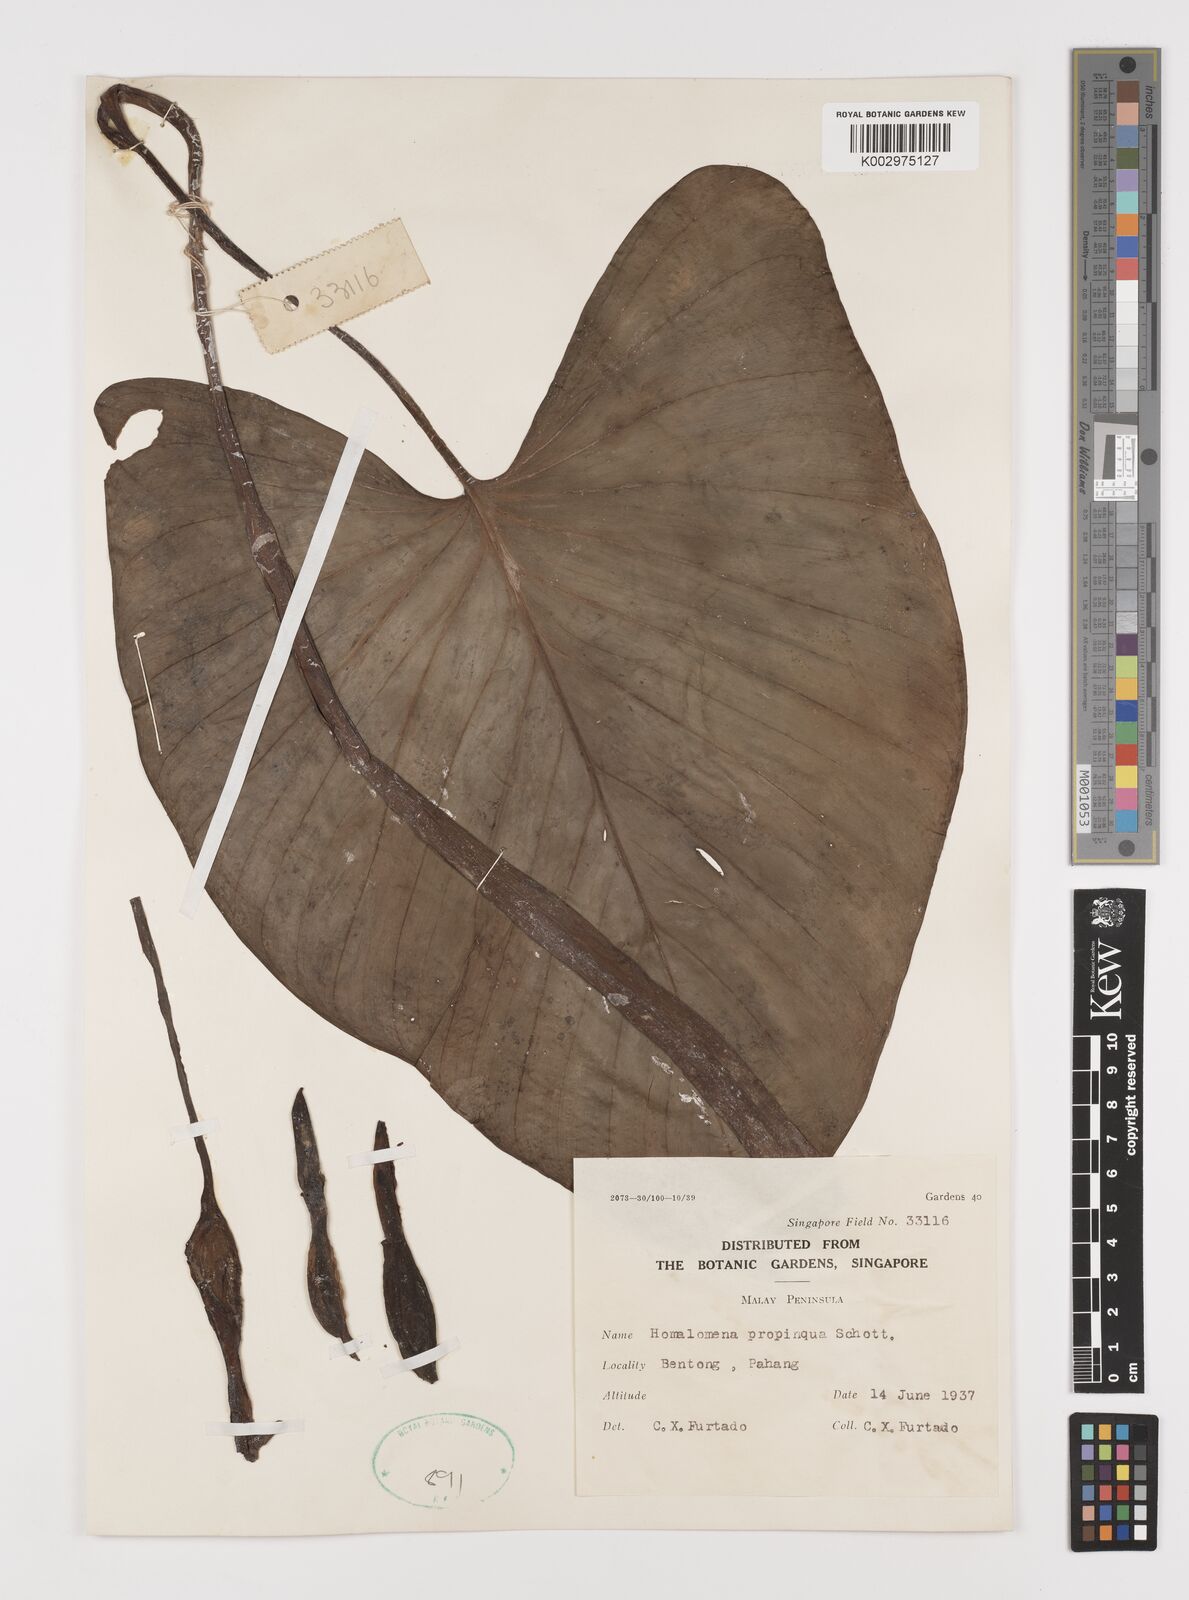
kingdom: Plantae
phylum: Tracheophyta
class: Liliopsida
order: Alismatales
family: Araceae
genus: Homalomena
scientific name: Homalomena humilis
